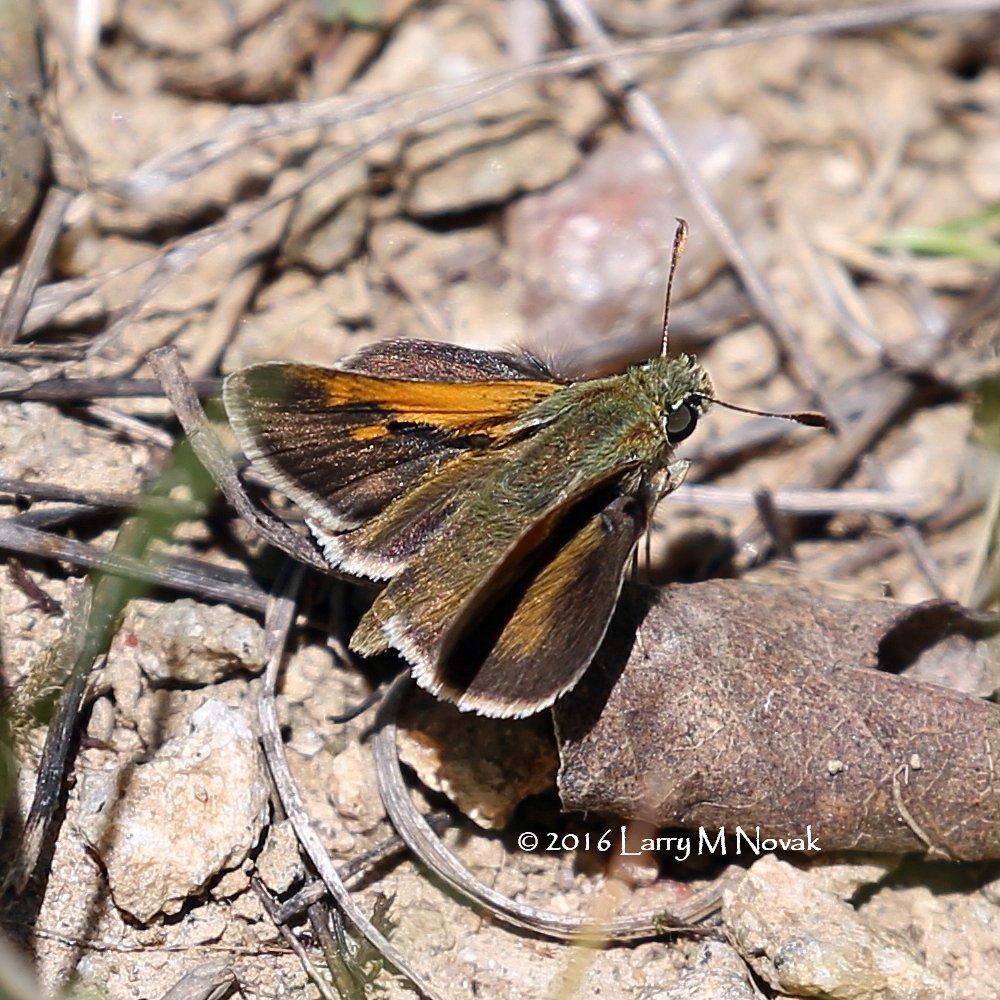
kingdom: Animalia
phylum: Arthropoda
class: Insecta
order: Lepidoptera
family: Hesperiidae
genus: Polites
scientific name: Polites themistocles
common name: Tawny-edged Skipper
